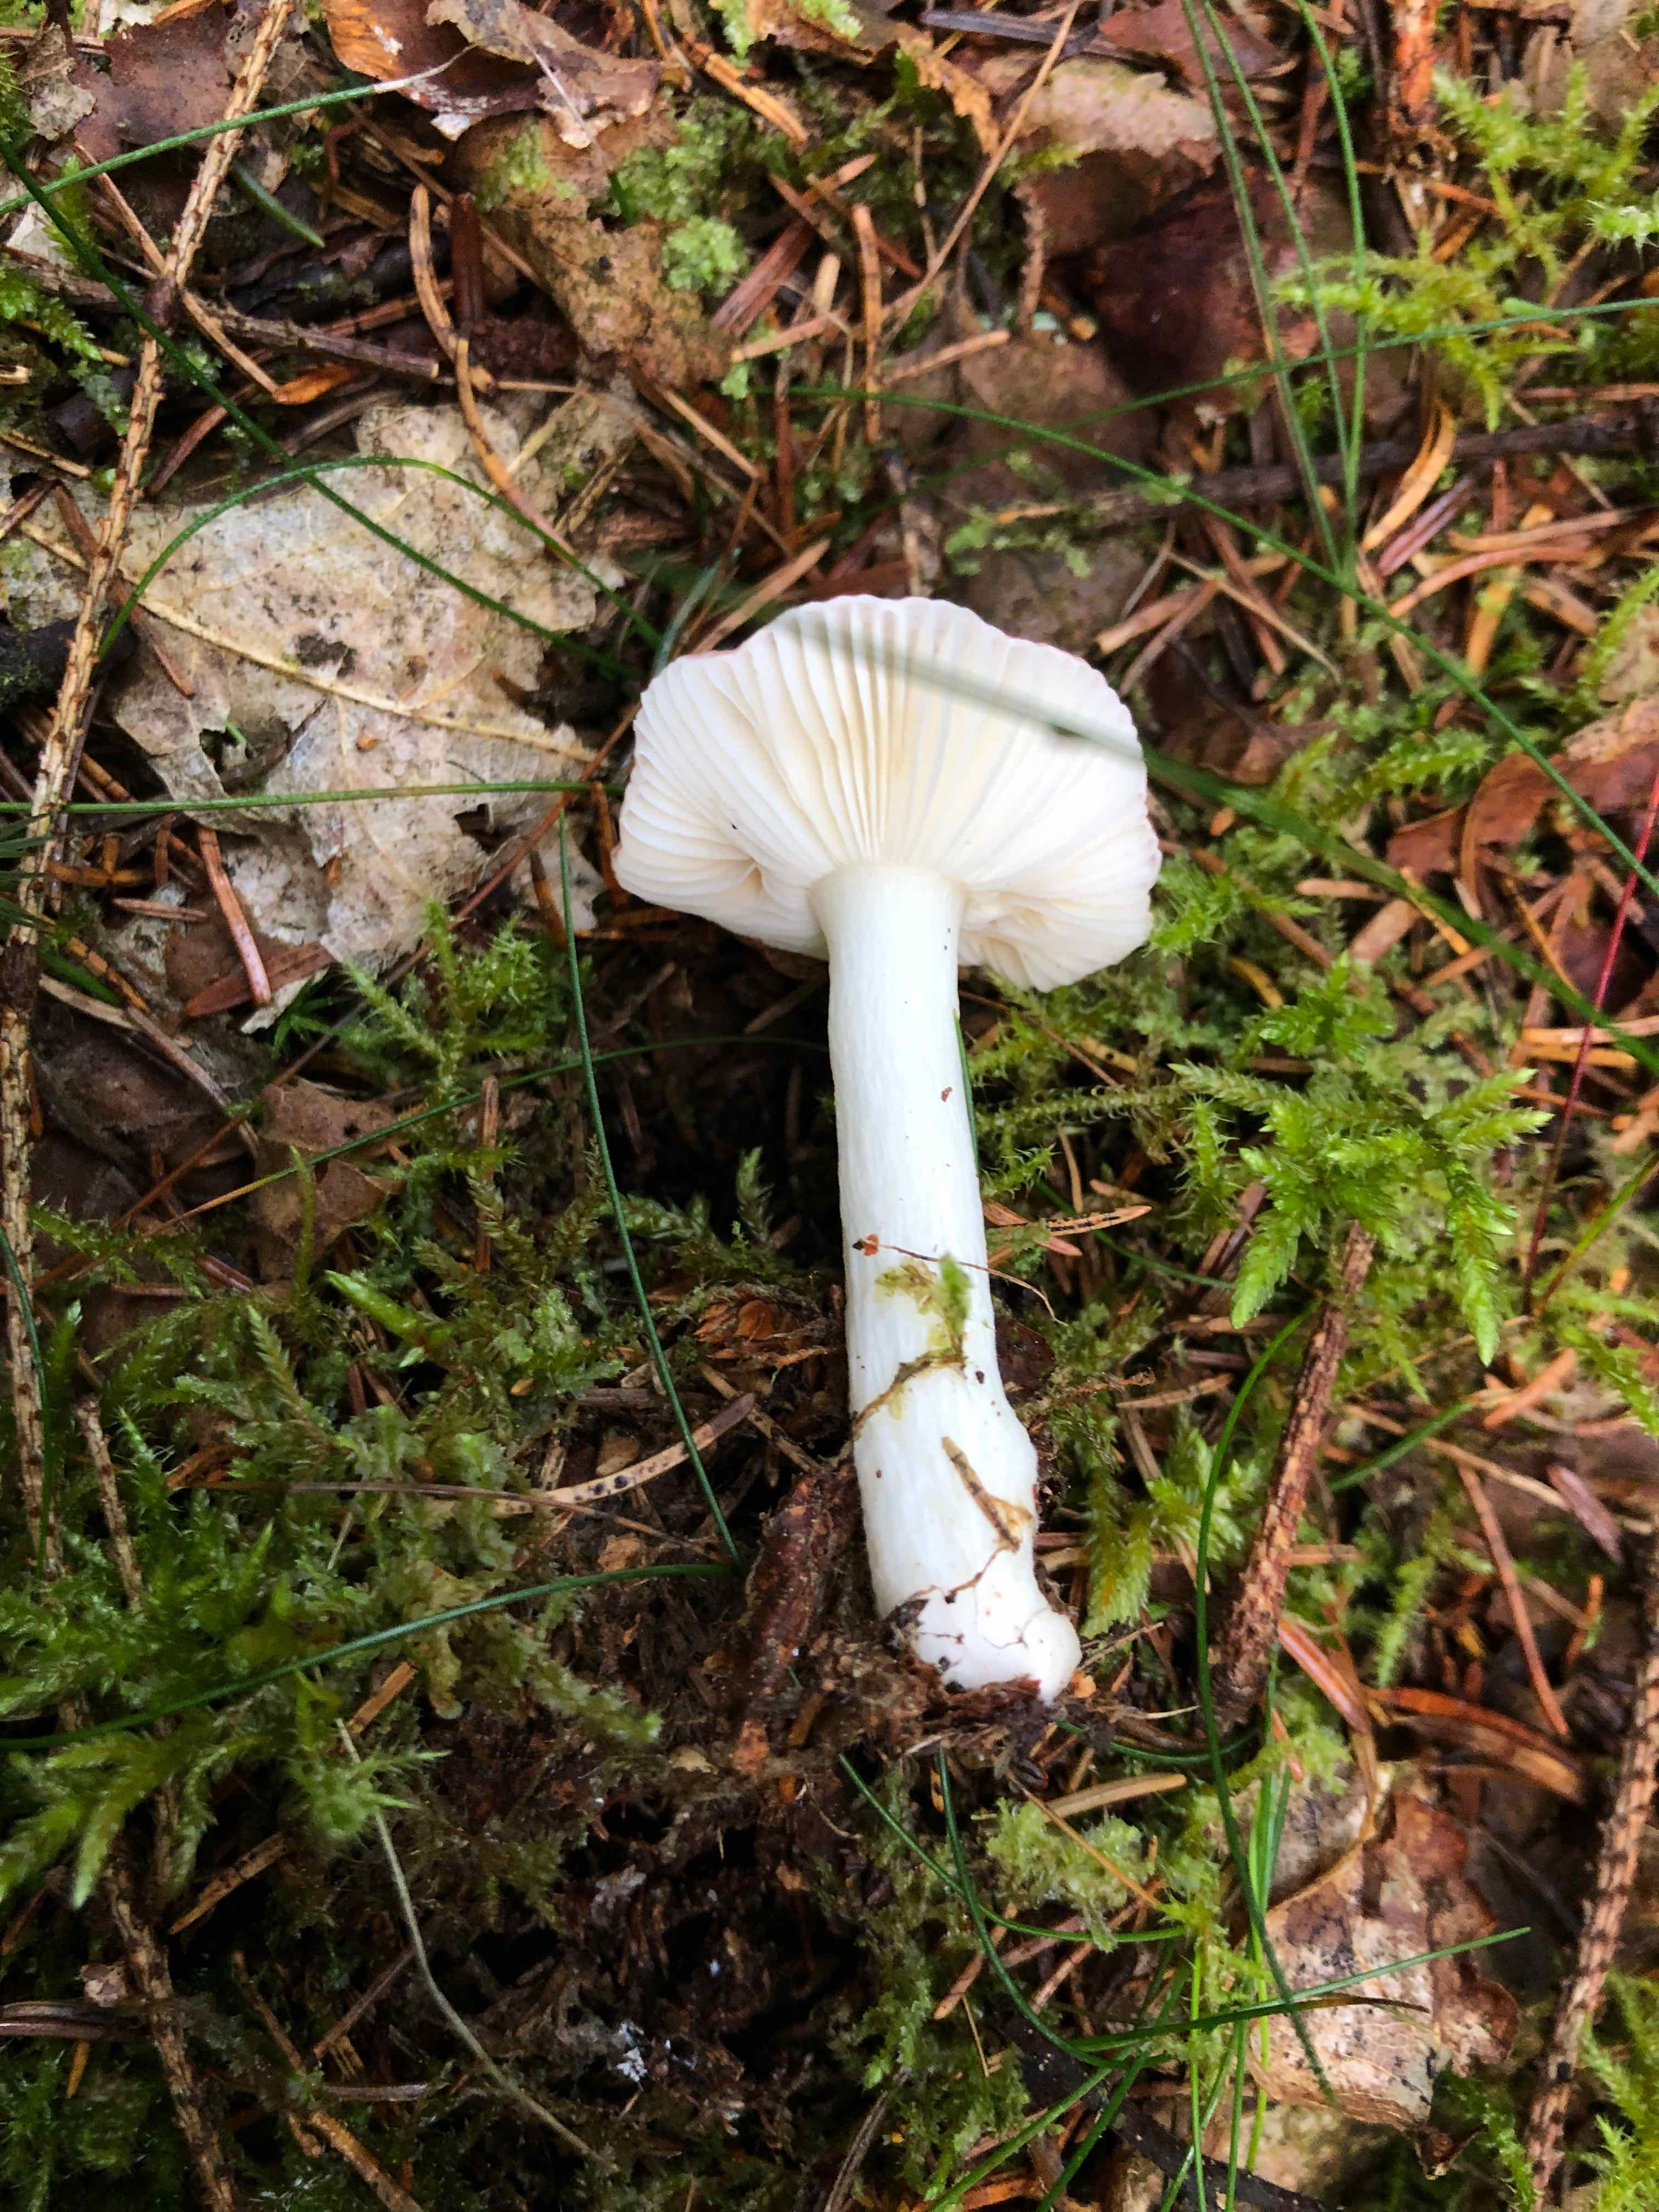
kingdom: Fungi
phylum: Basidiomycota
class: Agaricomycetes
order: Russulales
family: Russulaceae
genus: Russula
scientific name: Russula betularum
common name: bleg gift-skørhat
